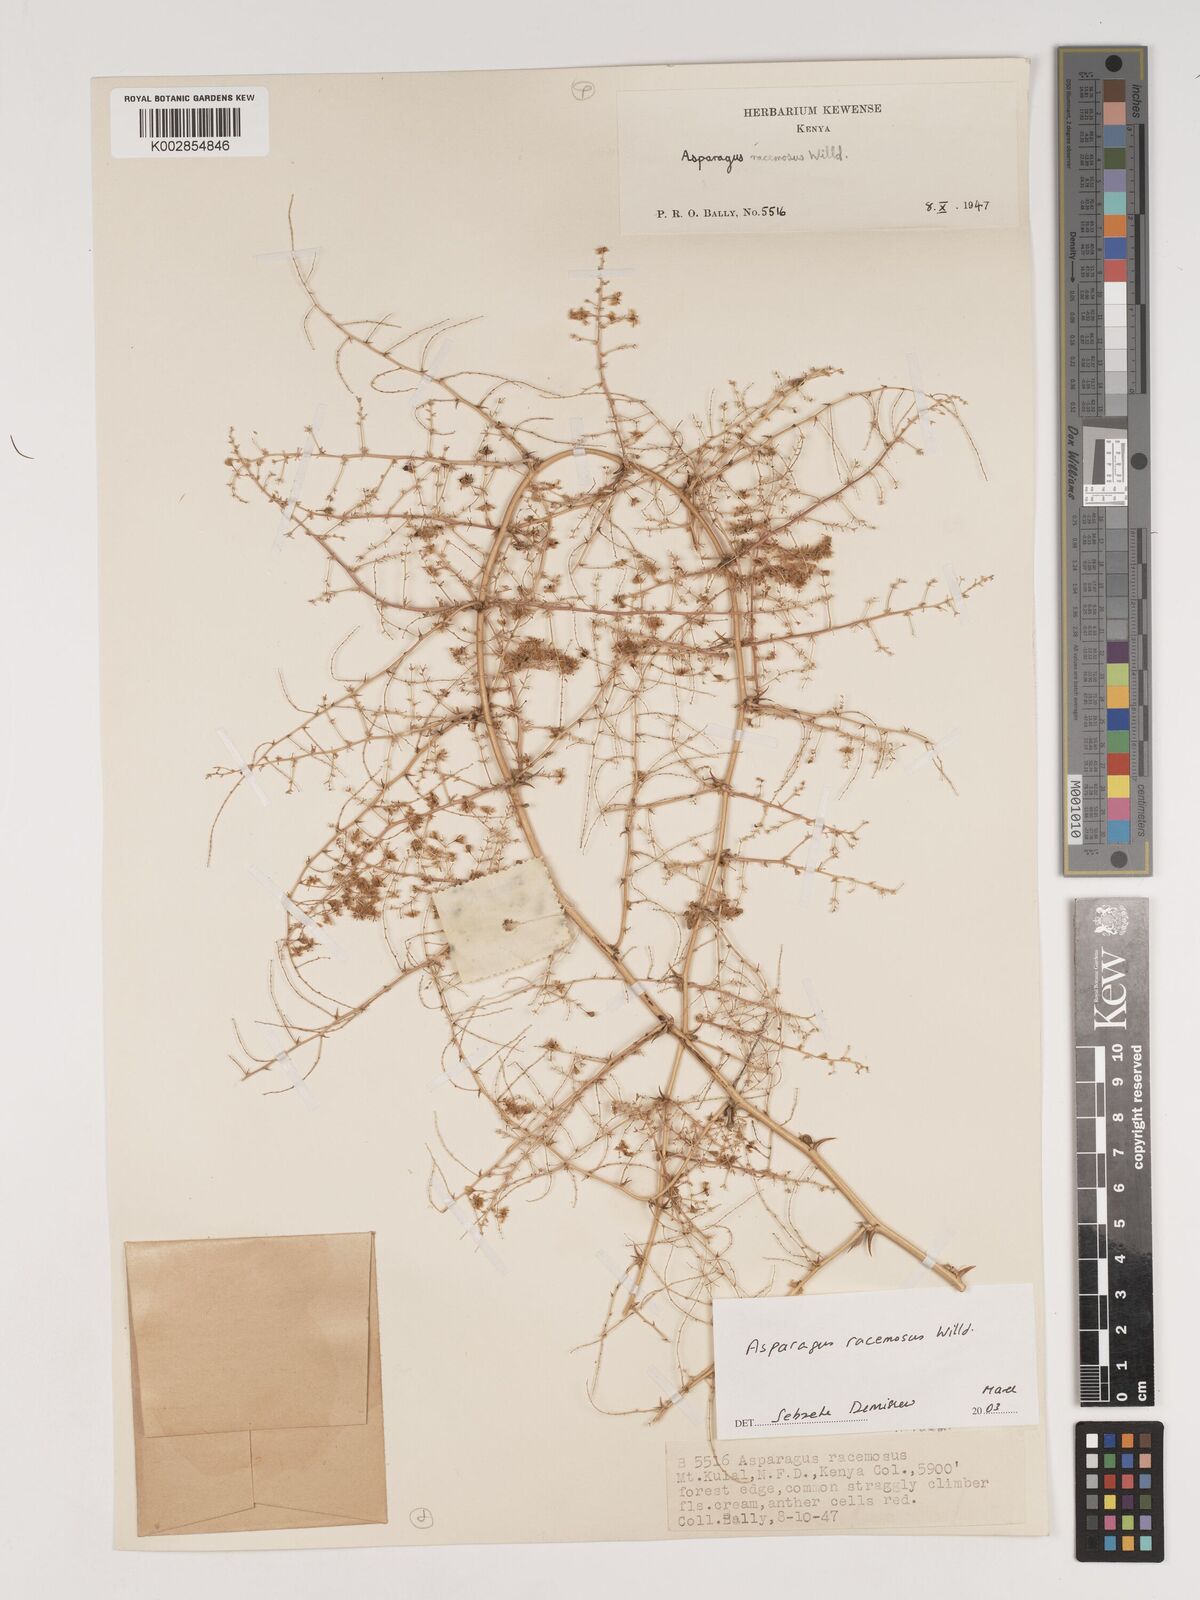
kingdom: Plantae
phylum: Tracheophyta
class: Liliopsida
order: Asparagales
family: Asparagaceae
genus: Asparagus
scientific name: Asparagus racemosus
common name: Asparagus-fern
